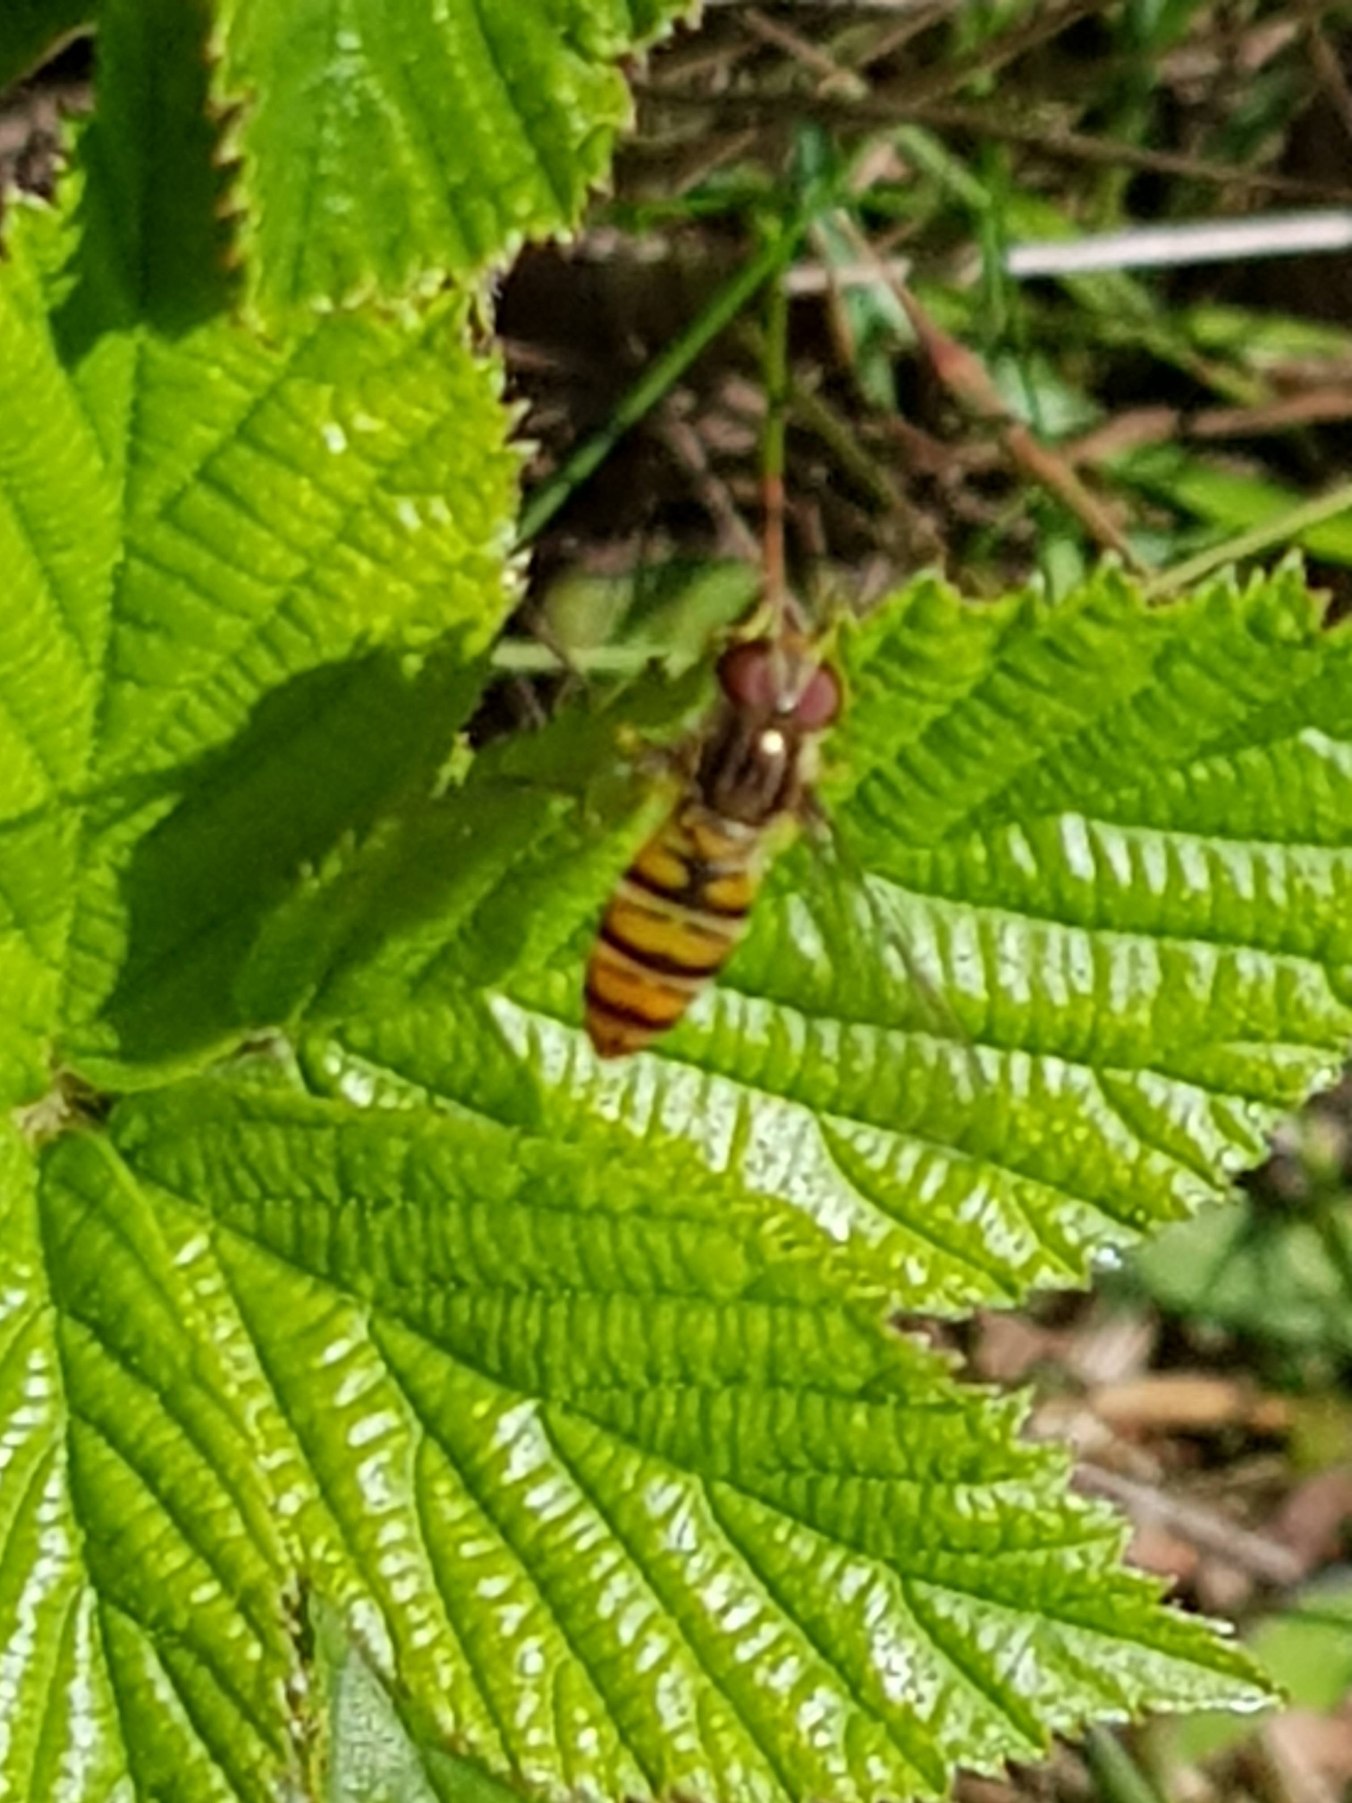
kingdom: Animalia
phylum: Arthropoda
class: Insecta
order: Diptera
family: Syrphidae
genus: Episyrphus
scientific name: Episyrphus balteatus
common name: Dobbeltbåndet svirreflue
